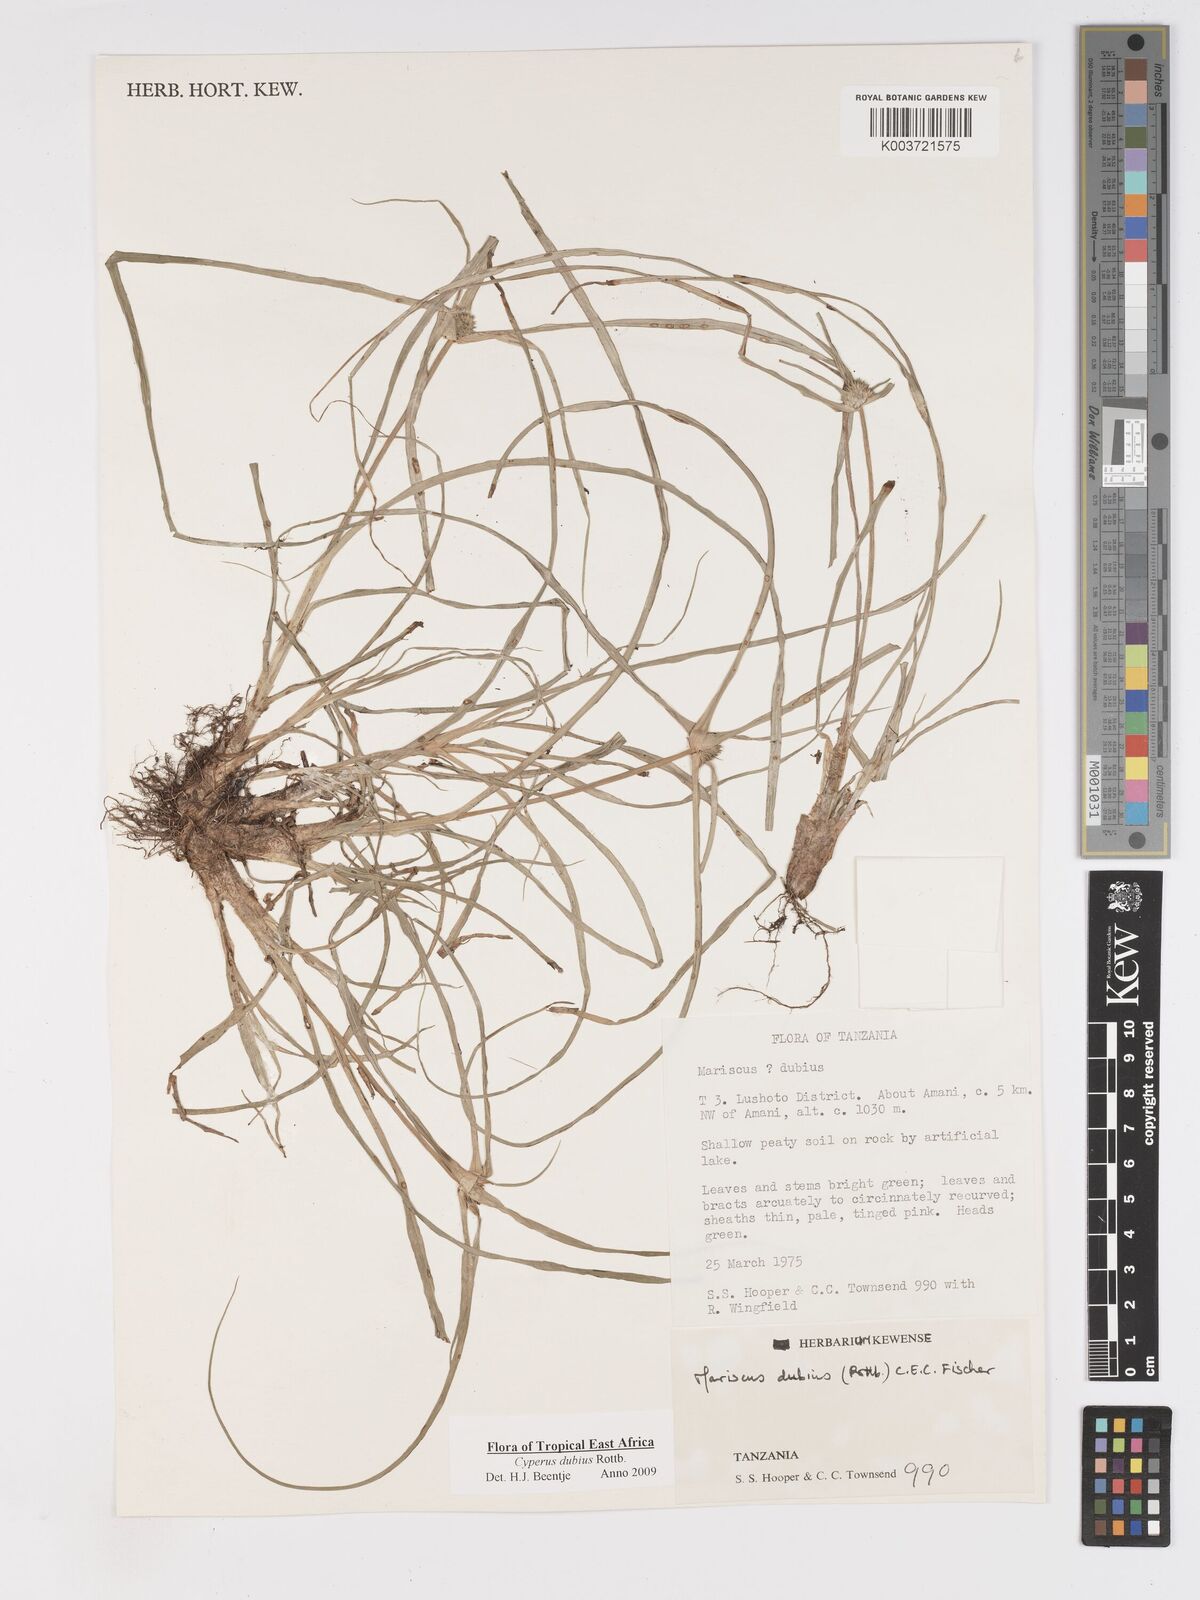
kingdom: Plantae
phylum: Tracheophyta
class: Liliopsida
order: Poales
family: Cyperaceae
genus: Cyperus
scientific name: Cyperus dubius
